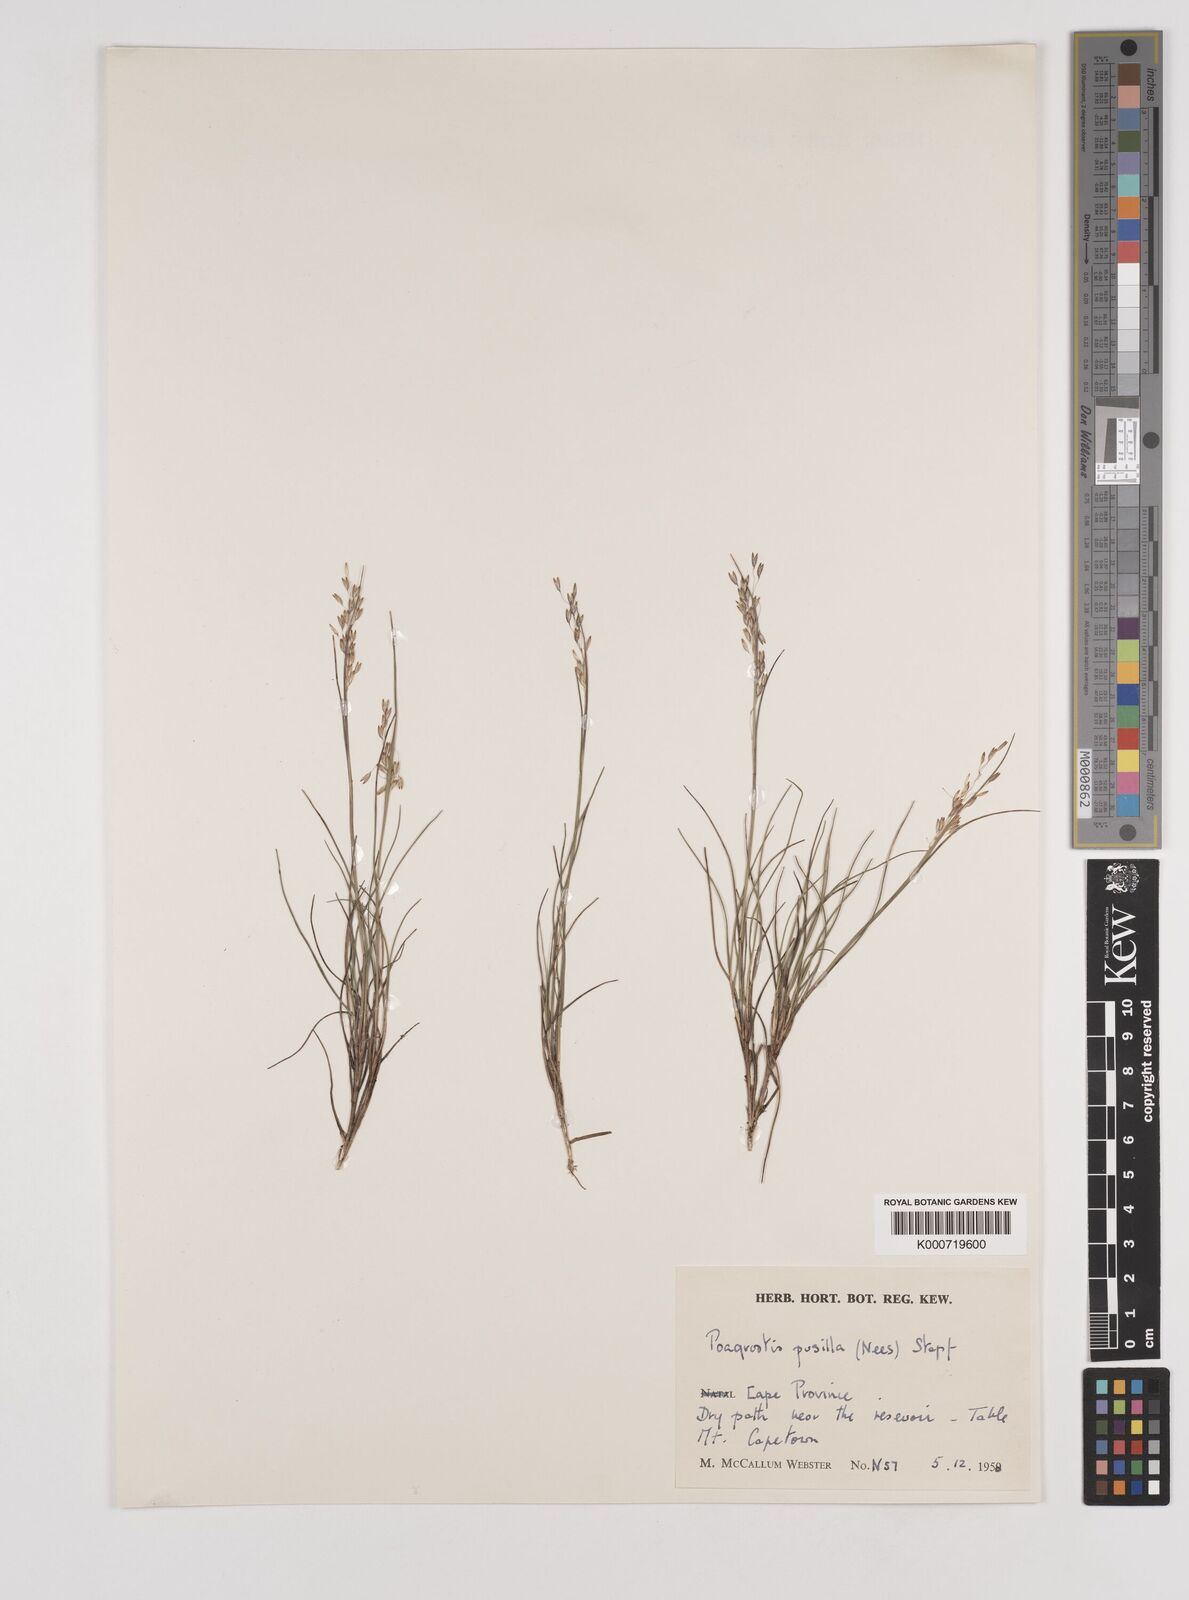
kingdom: Plantae
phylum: Tracheophyta
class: Liliopsida
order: Poales
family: Poaceae
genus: Pentameris
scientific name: Pentameris malouinensis
